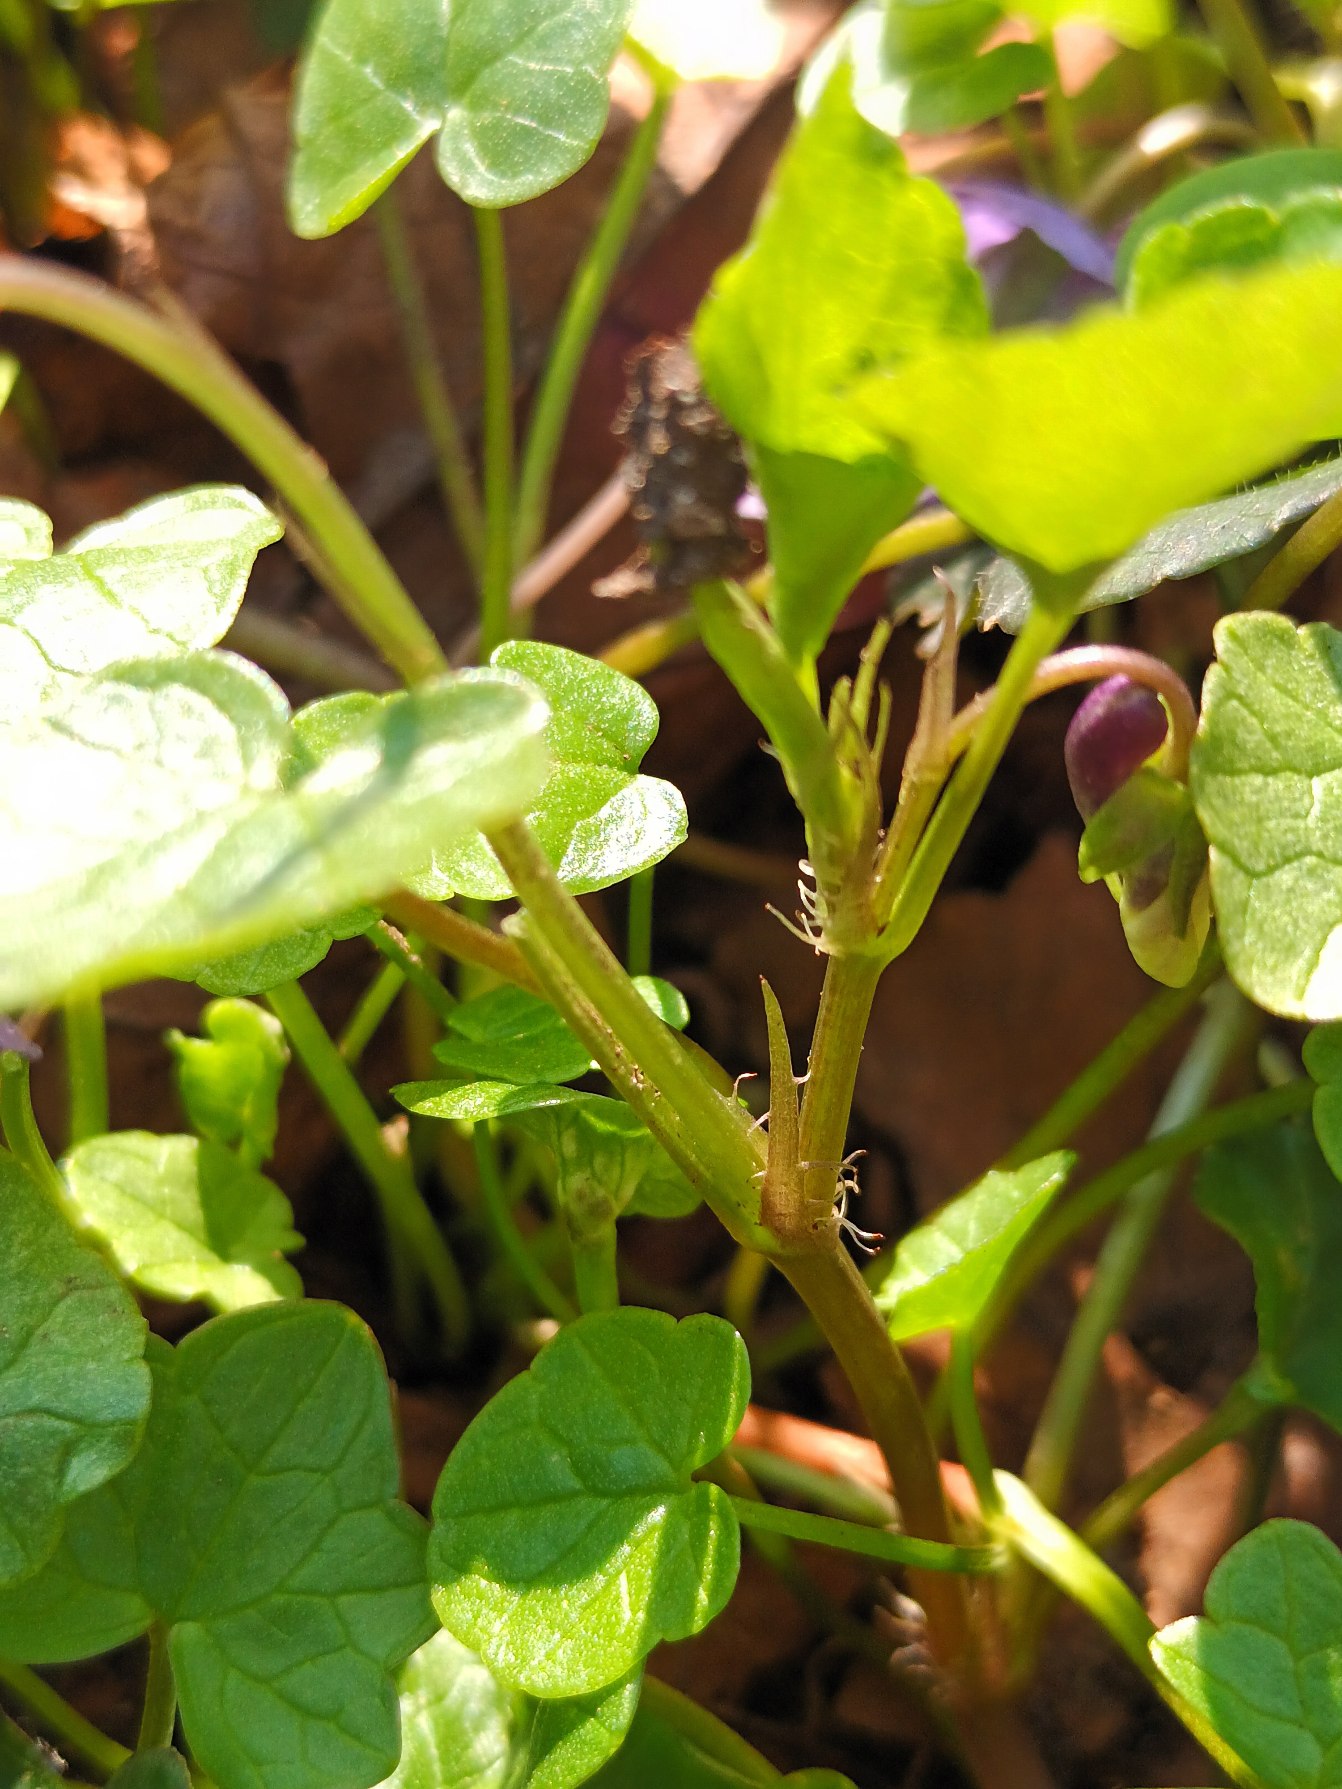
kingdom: Plantae
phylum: Tracheophyta
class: Magnoliopsida
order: Malpighiales
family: Violaceae
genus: Viola
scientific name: Viola reichenbachiana
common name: Skov-viol
